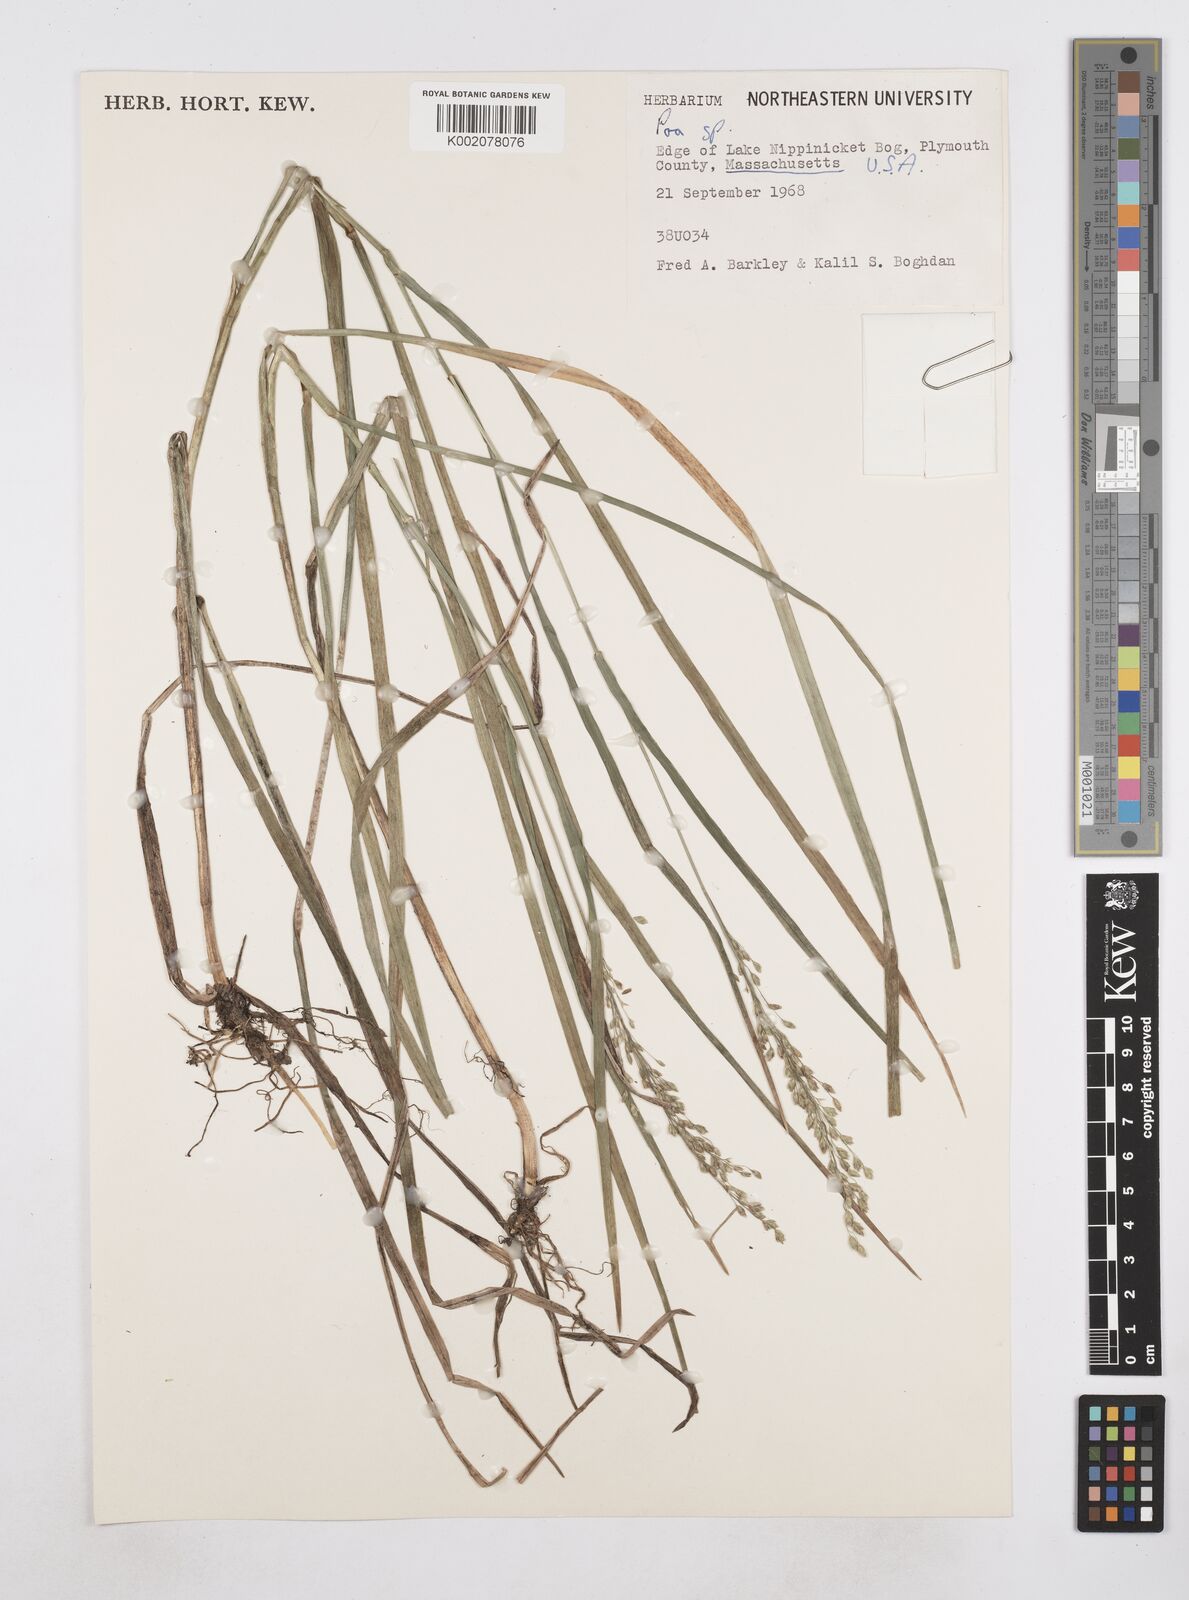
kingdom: Plantae
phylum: Tracheophyta
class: Liliopsida
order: Poales
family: Poaceae
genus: Poa
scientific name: Poa
